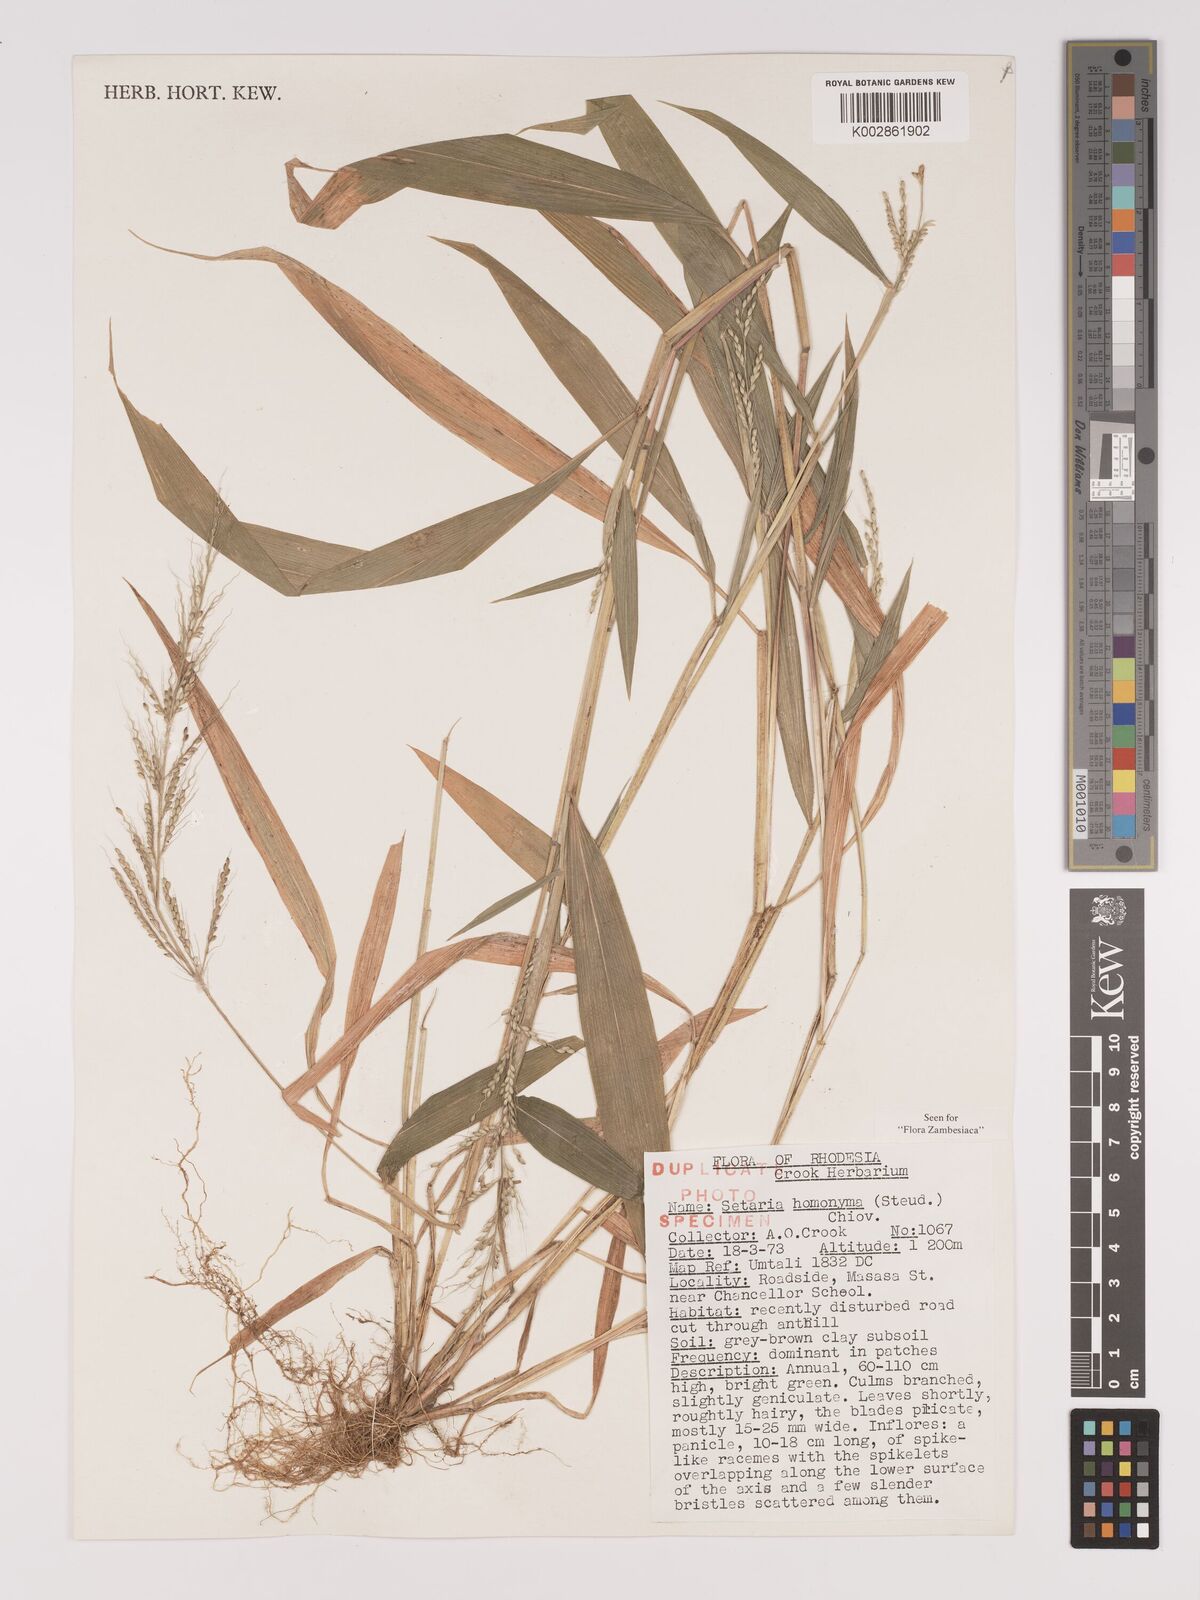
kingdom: Plantae
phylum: Tracheophyta
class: Liliopsida
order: Poales
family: Poaceae
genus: Setaria
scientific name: Setaria homonyma
